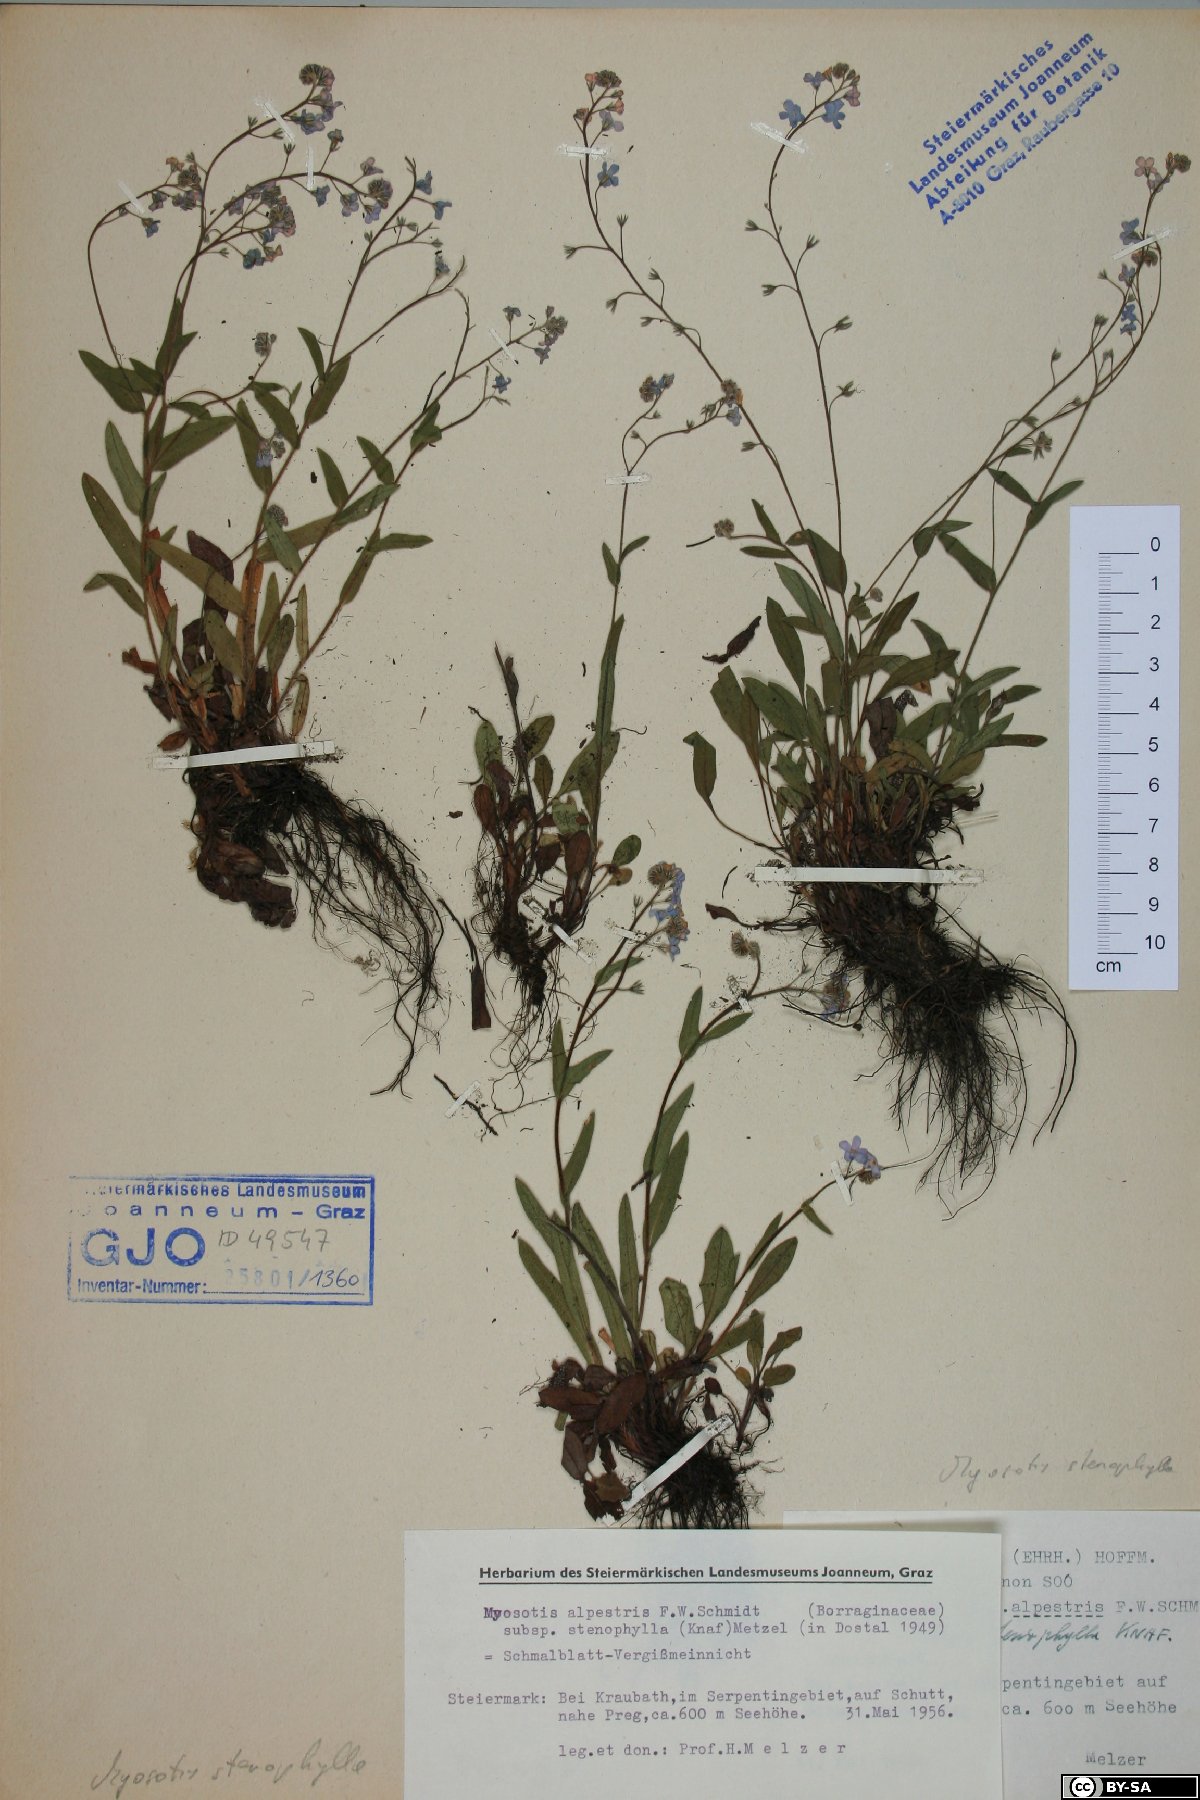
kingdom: Plantae
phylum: Tracheophyta
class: Magnoliopsida
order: Boraginales
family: Boraginaceae
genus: Myosotis
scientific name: Myosotis alpestris
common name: Alpine forget-me-not
